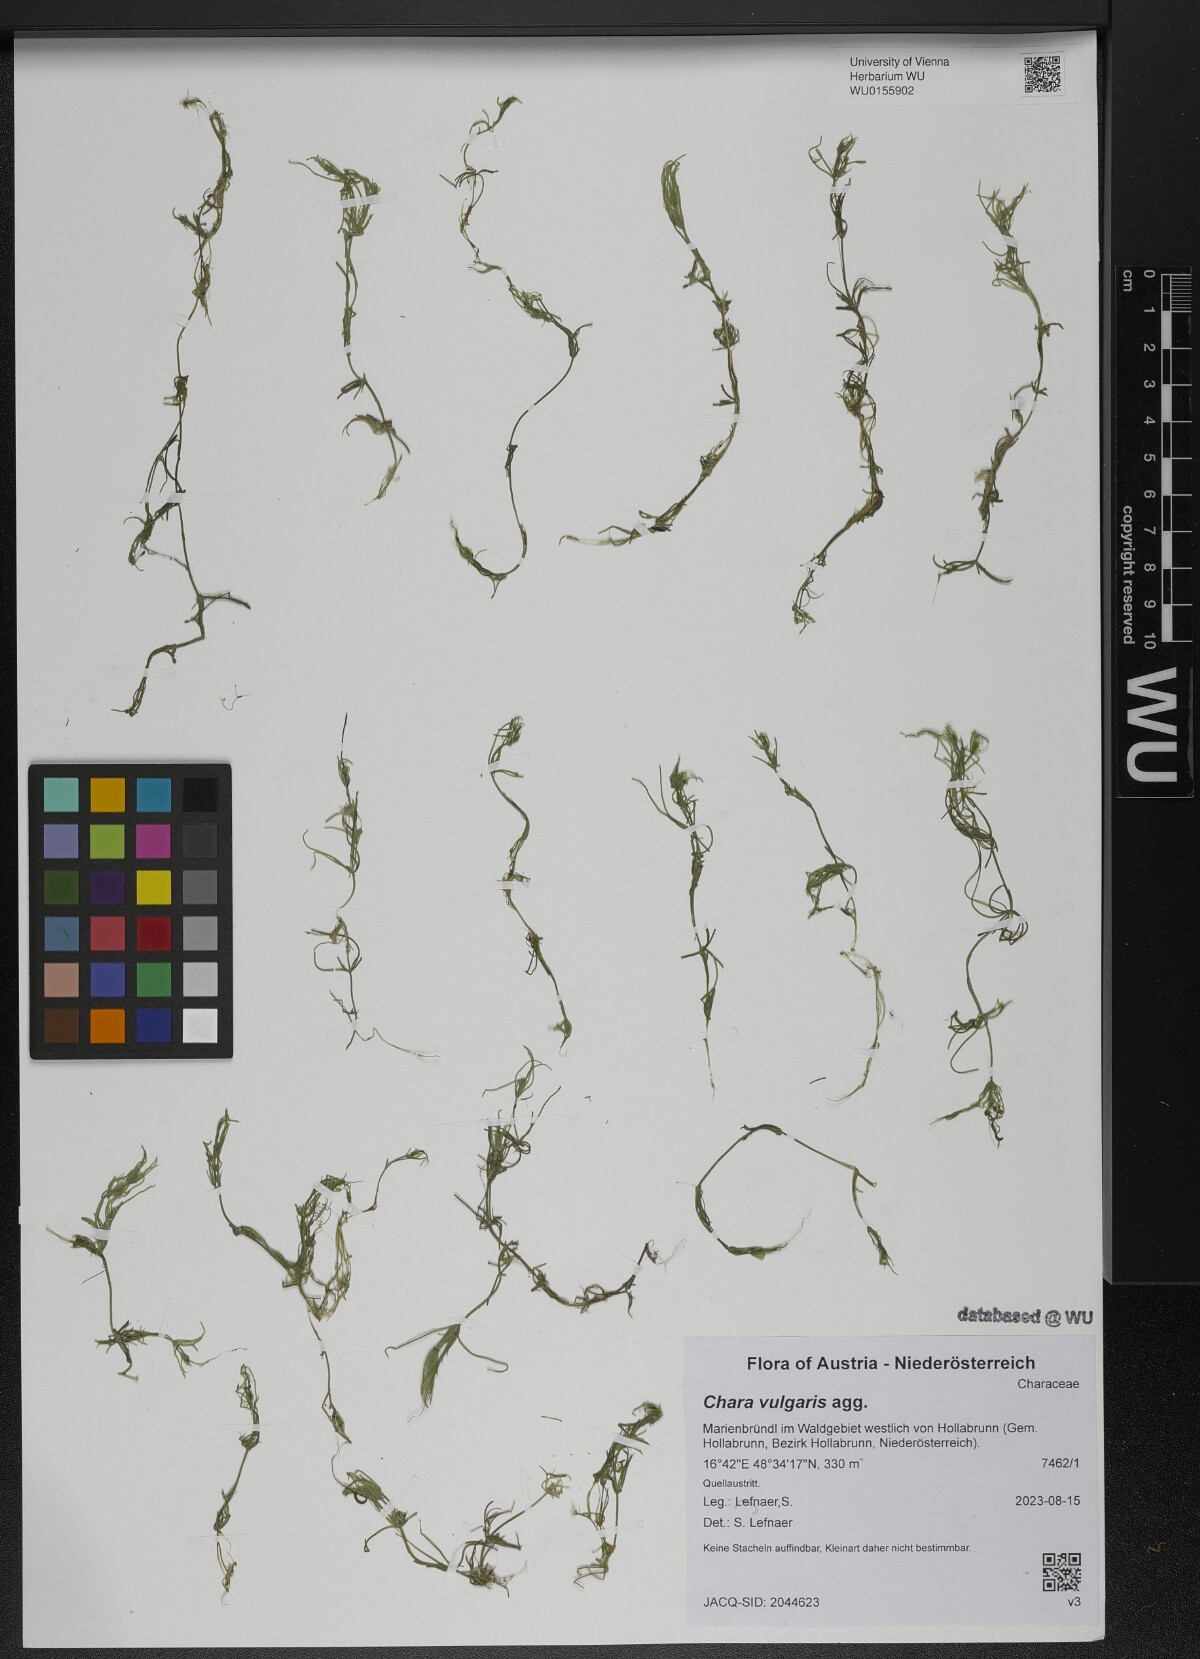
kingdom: Plantae
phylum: Charophyta
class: Charophyceae
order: Charales
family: Characeae
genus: Chara
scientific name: Chara vulgaris
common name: Common stonewort
